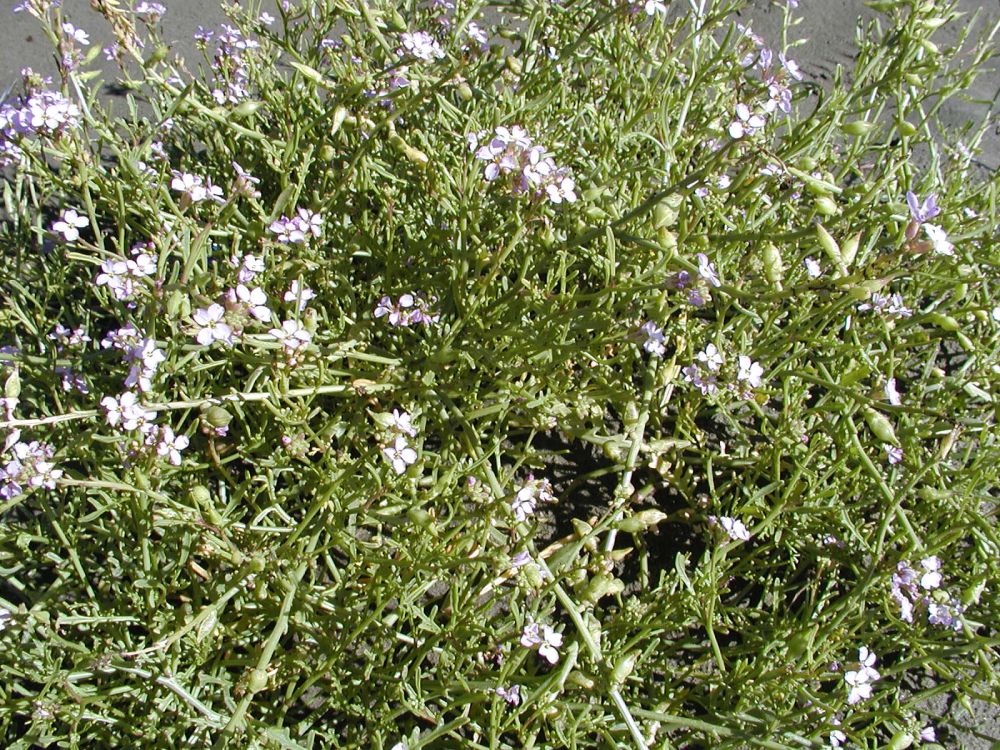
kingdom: Plantae
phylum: Tracheophyta
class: Magnoliopsida
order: Brassicales
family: Brassicaceae
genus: Cakile
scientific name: Cakile edentula
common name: American sea rocket
